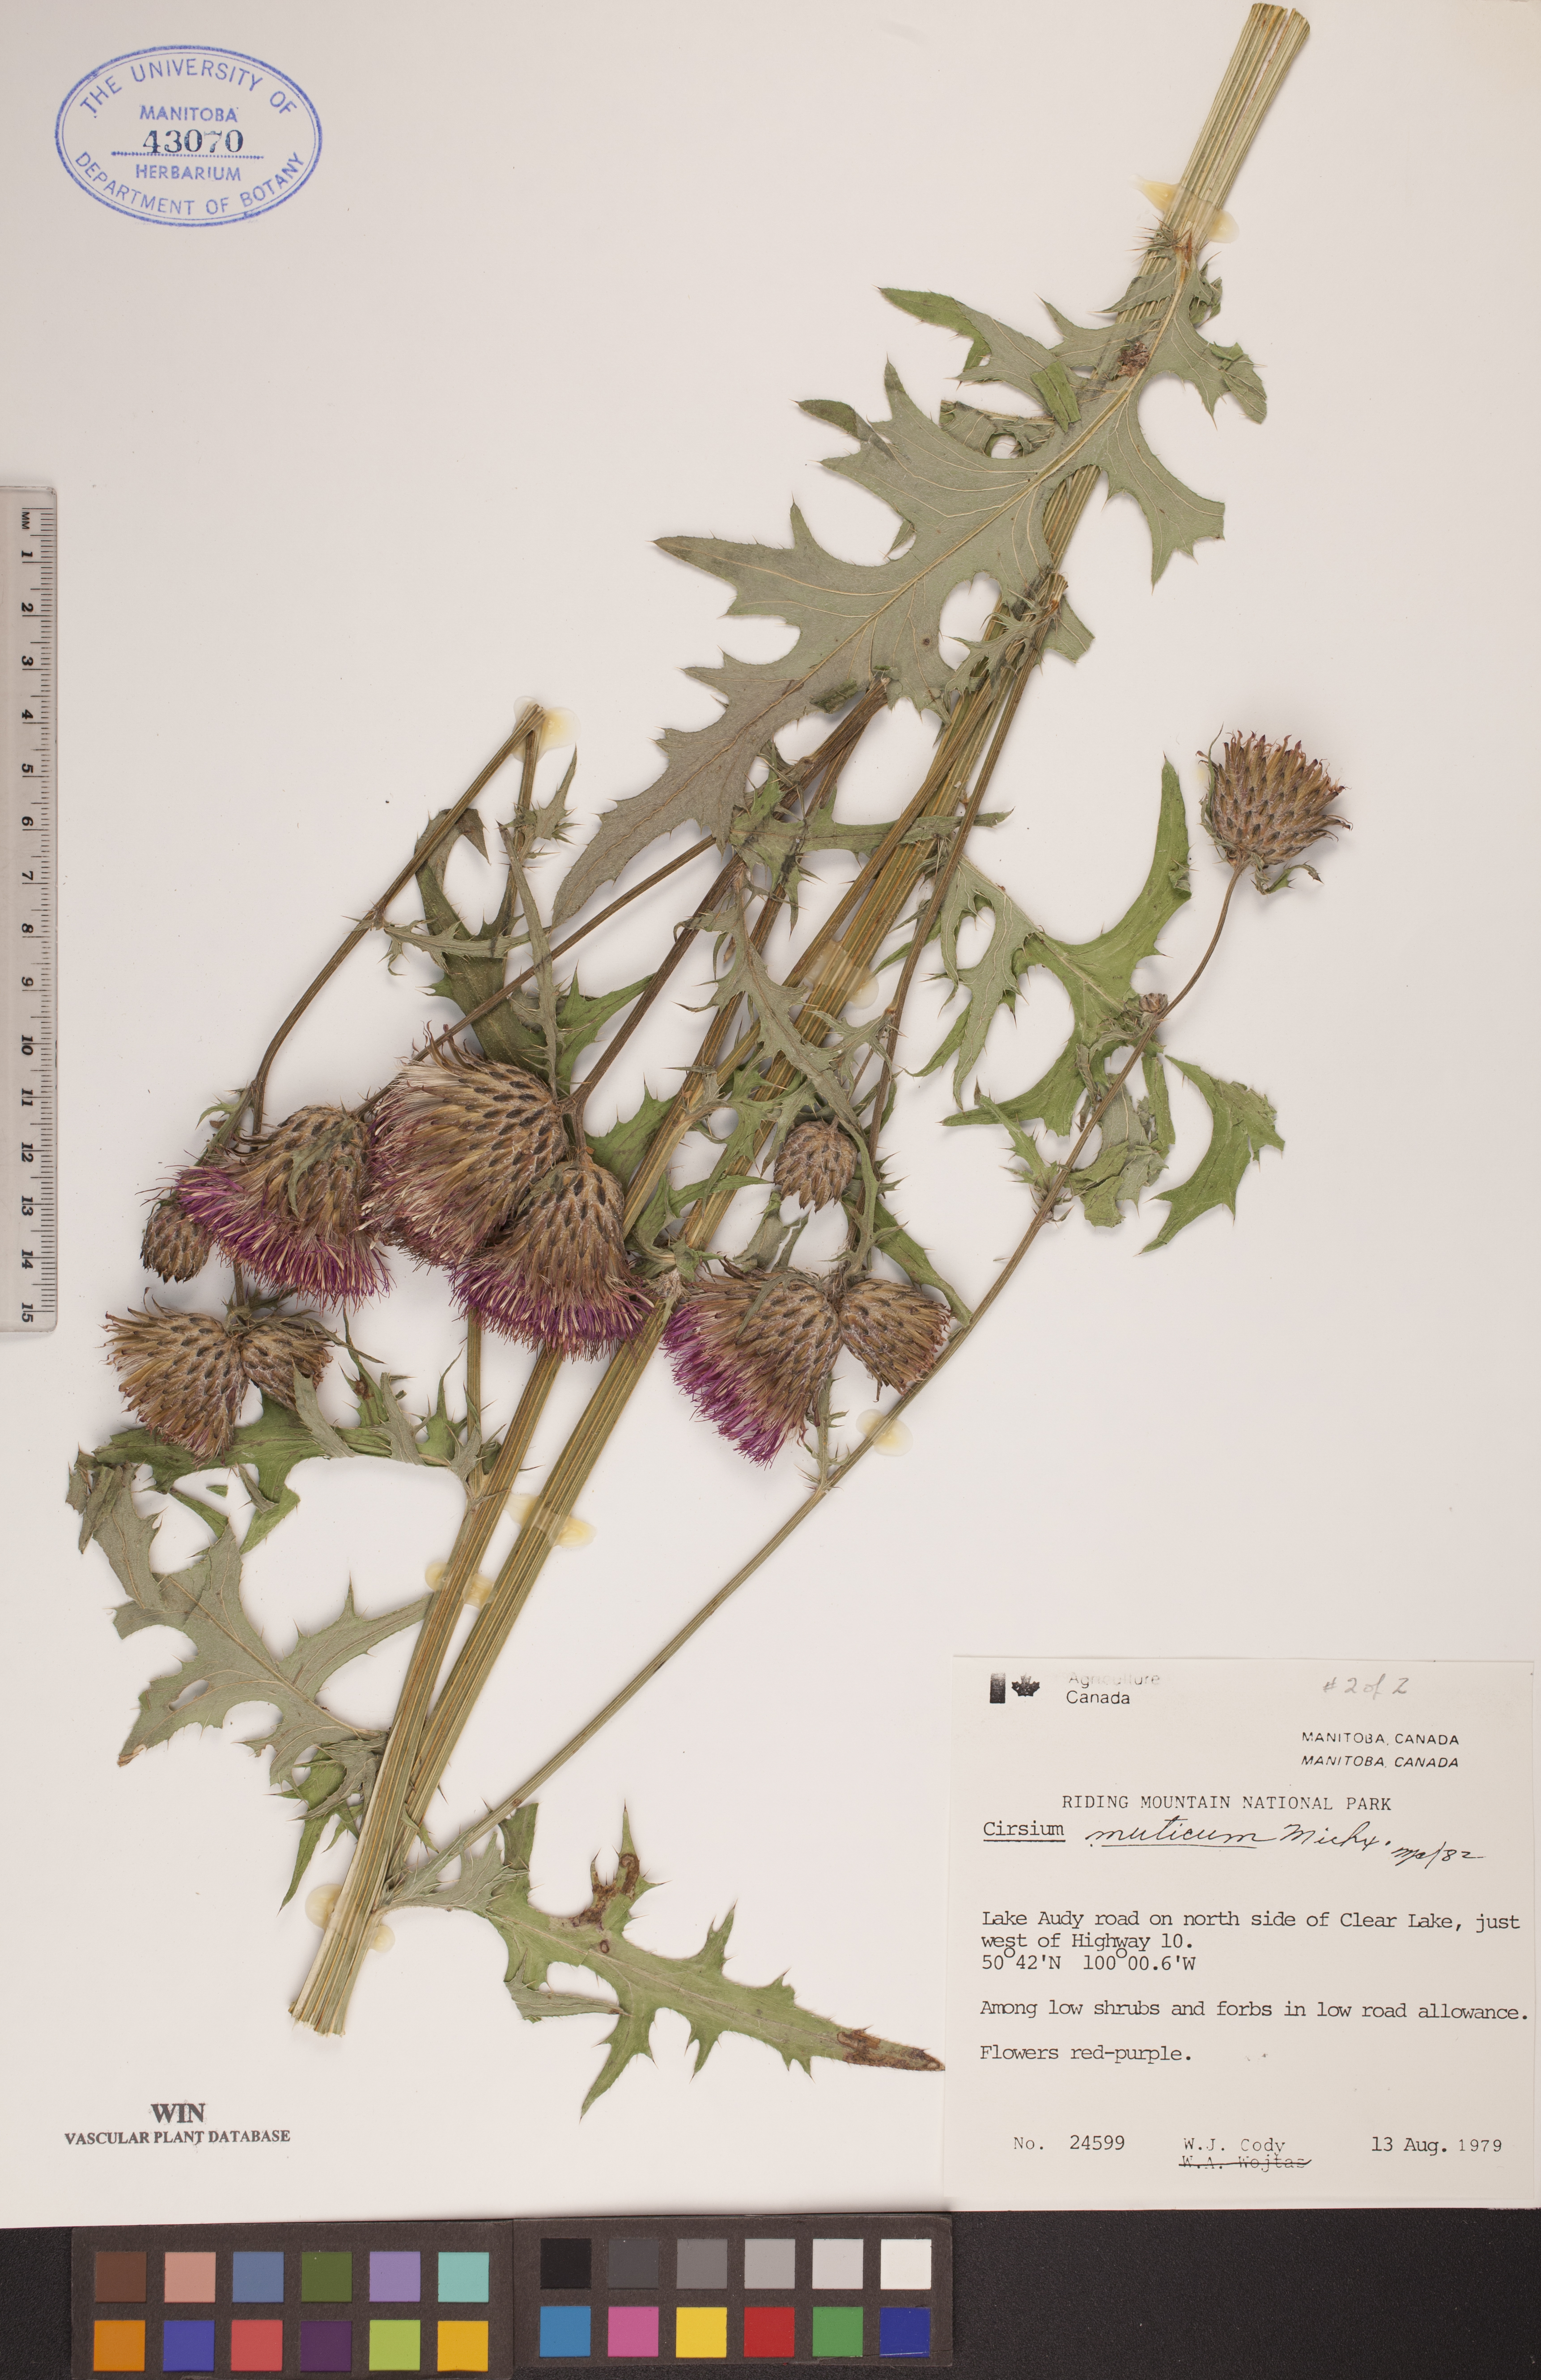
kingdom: Plantae
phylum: Tracheophyta
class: Magnoliopsida
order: Asterales
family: Asteraceae
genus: Cirsium
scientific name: Cirsium muticum
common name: Dunce-nettle
